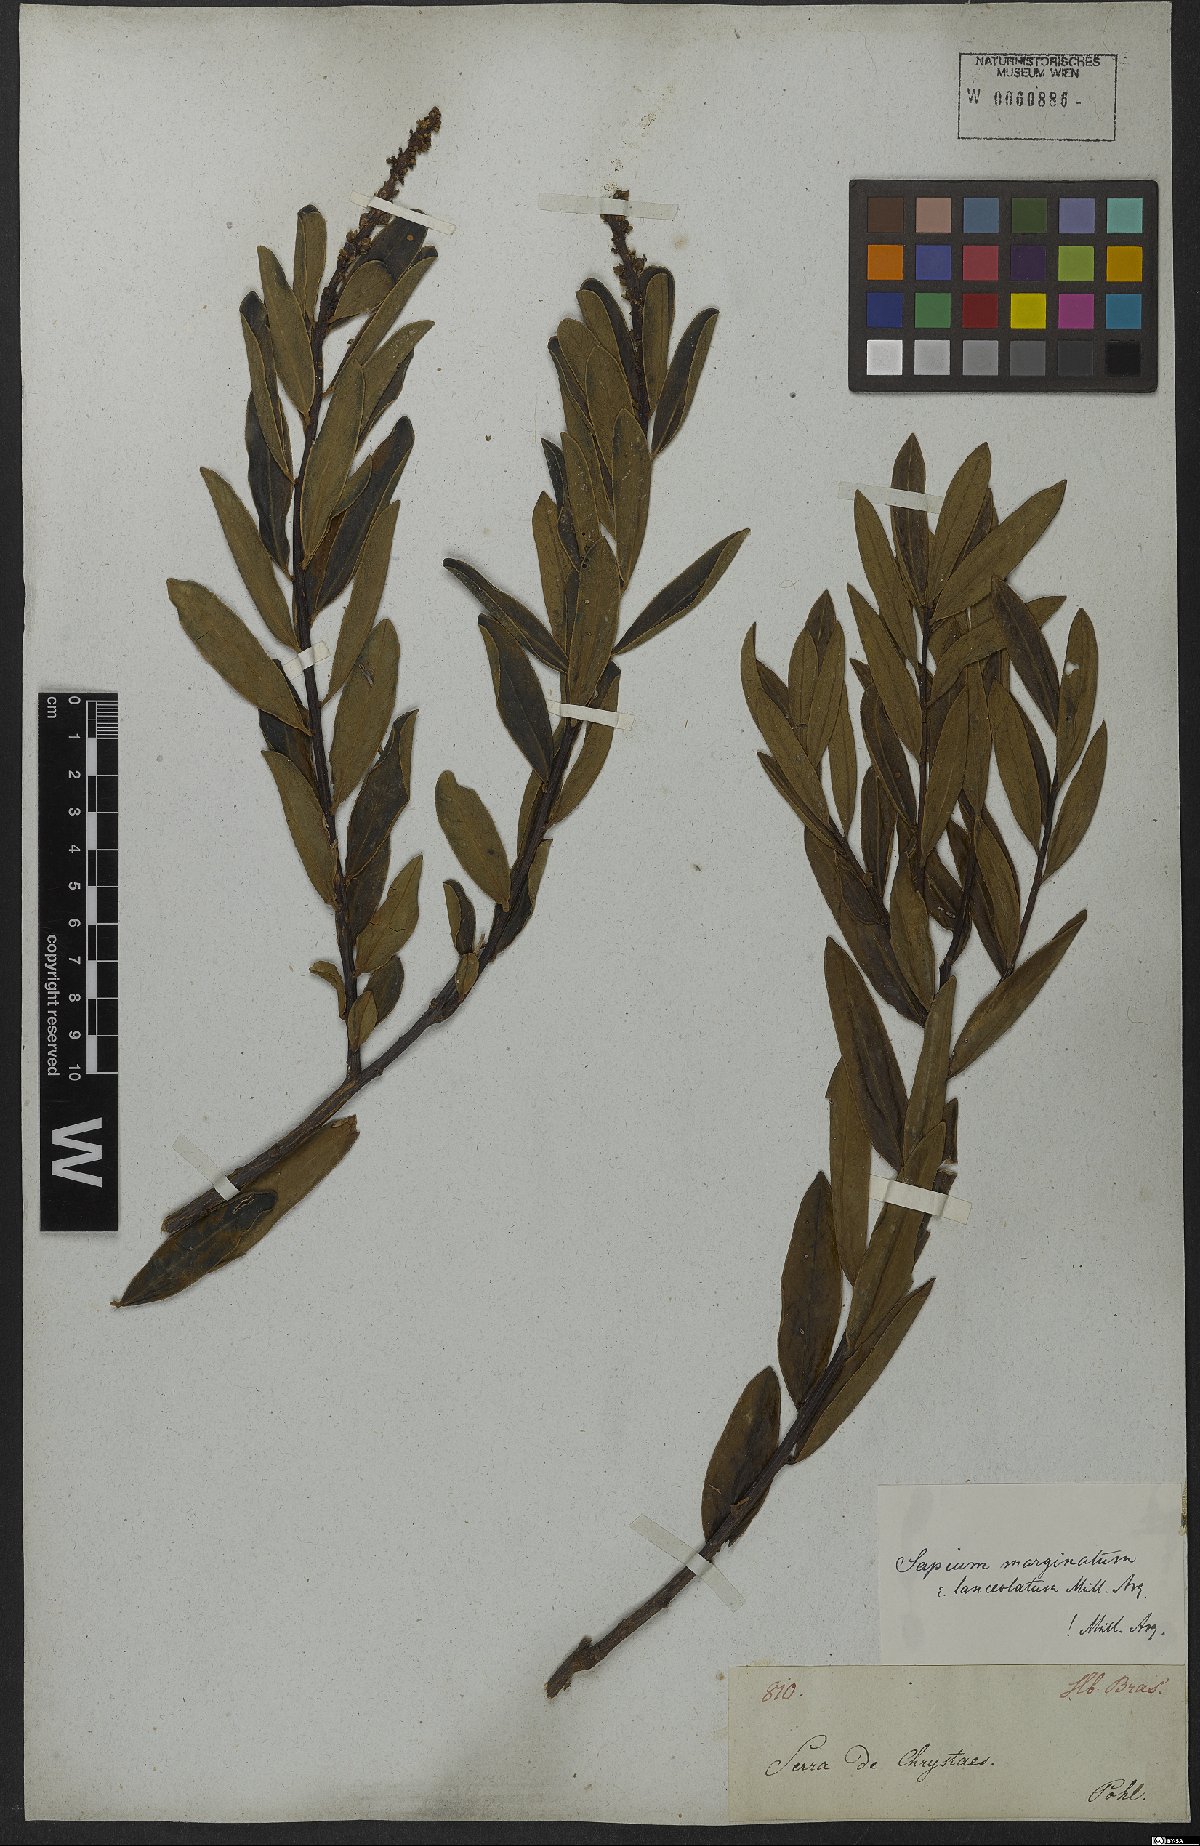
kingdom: Plantae
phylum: Tracheophyta
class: Magnoliopsida
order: Malpighiales
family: Euphorbiaceae
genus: Sapium
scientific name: Sapium glandulosum
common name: Milktree
